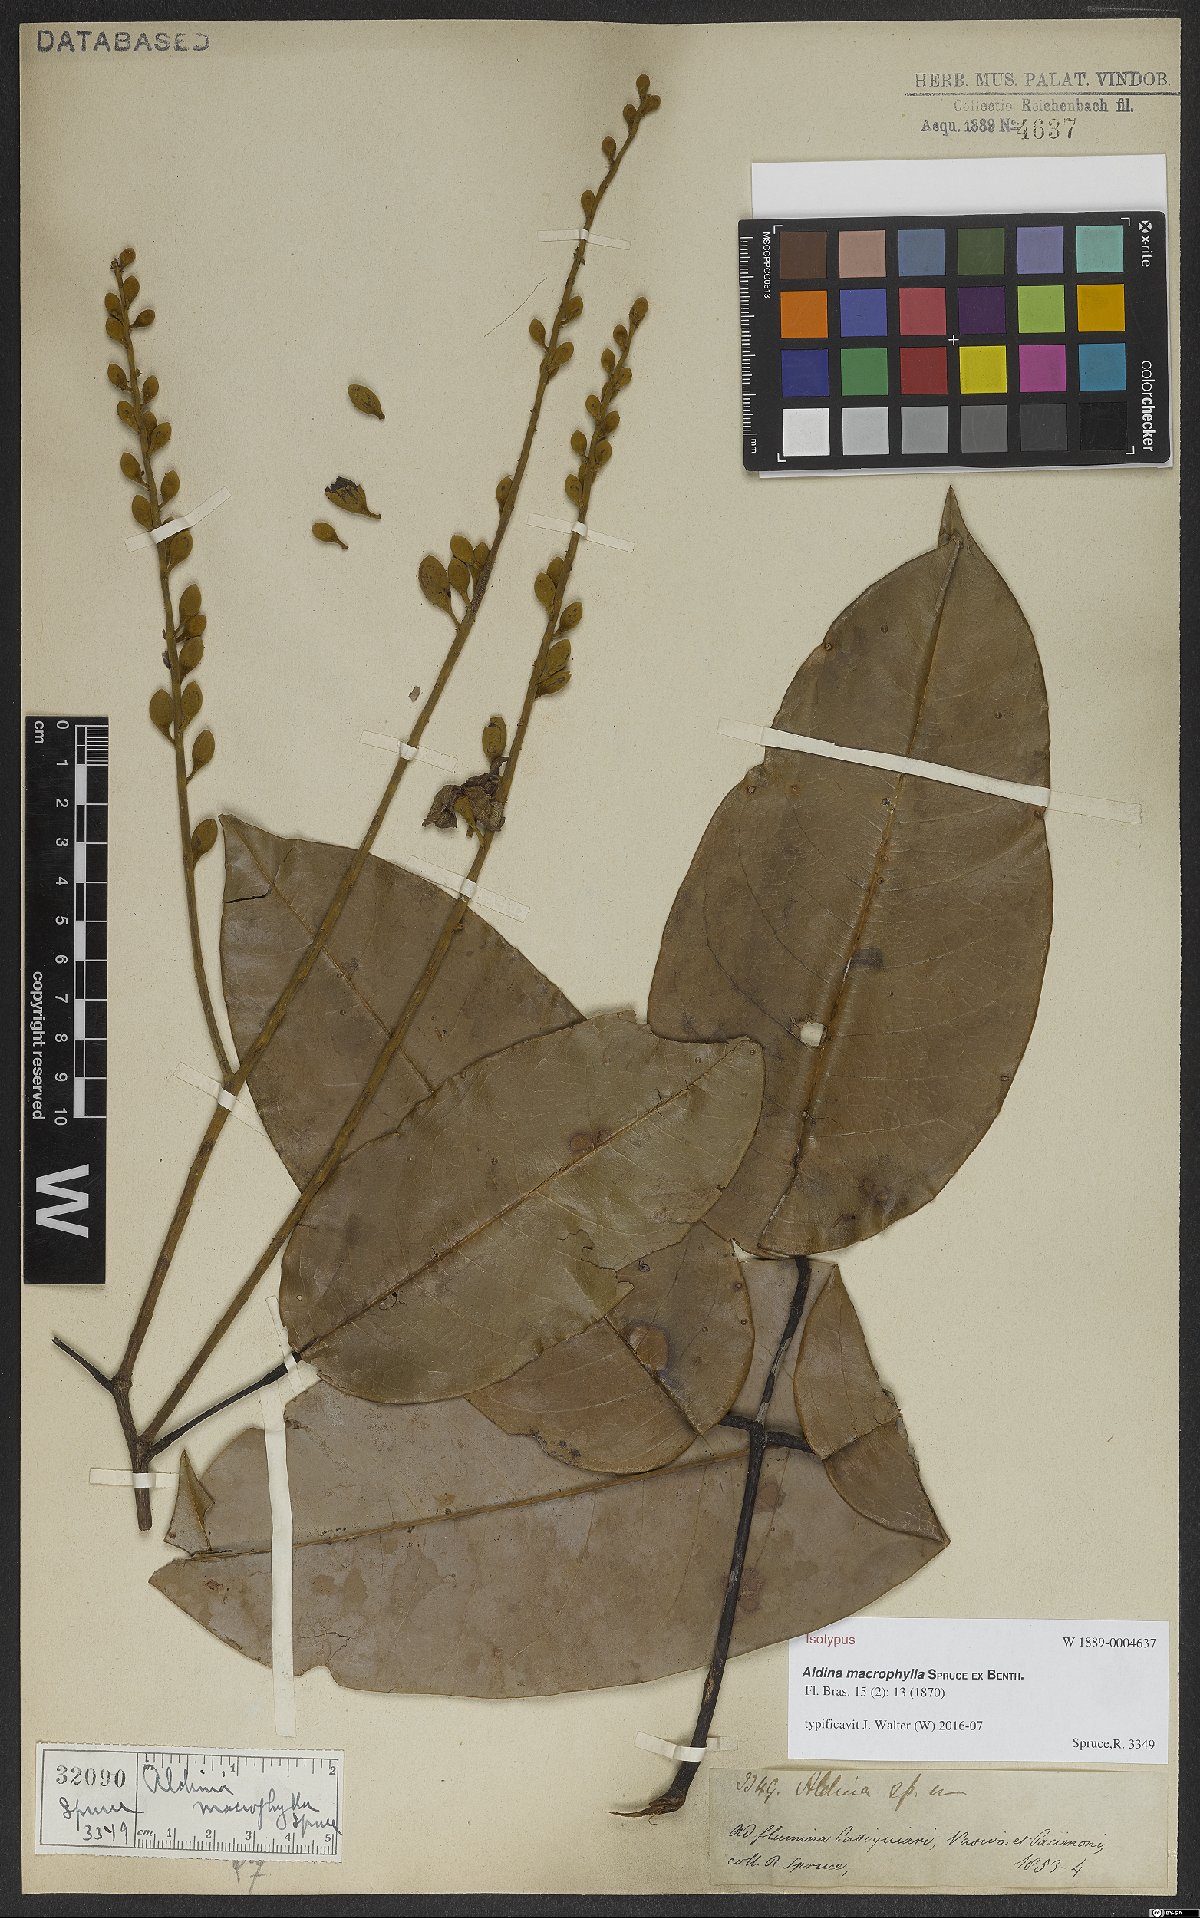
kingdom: Plantae
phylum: Tracheophyta
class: Magnoliopsida
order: Fabales
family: Fabaceae
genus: Aldina
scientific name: Aldina macrophylla
